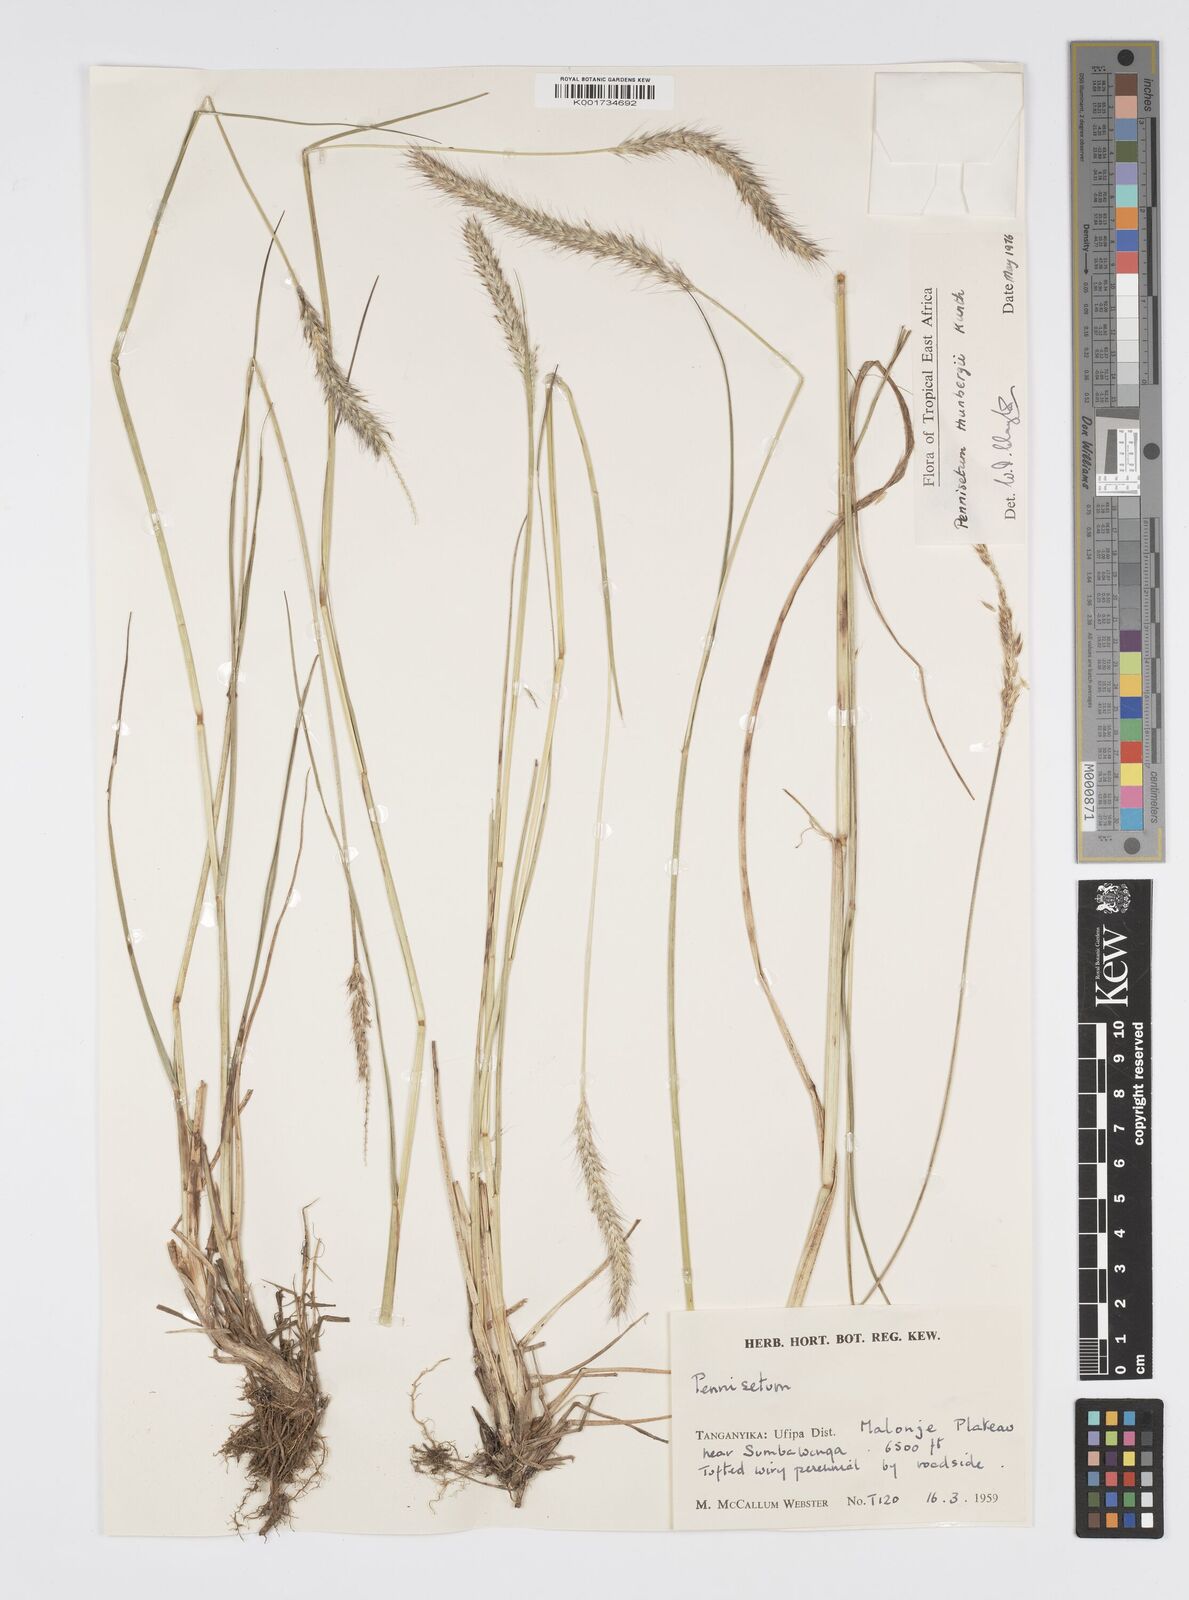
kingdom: Plantae
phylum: Tracheophyta
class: Liliopsida
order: Poales
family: Poaceae
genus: Cenchrus
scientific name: Cenchrus geniculatus
